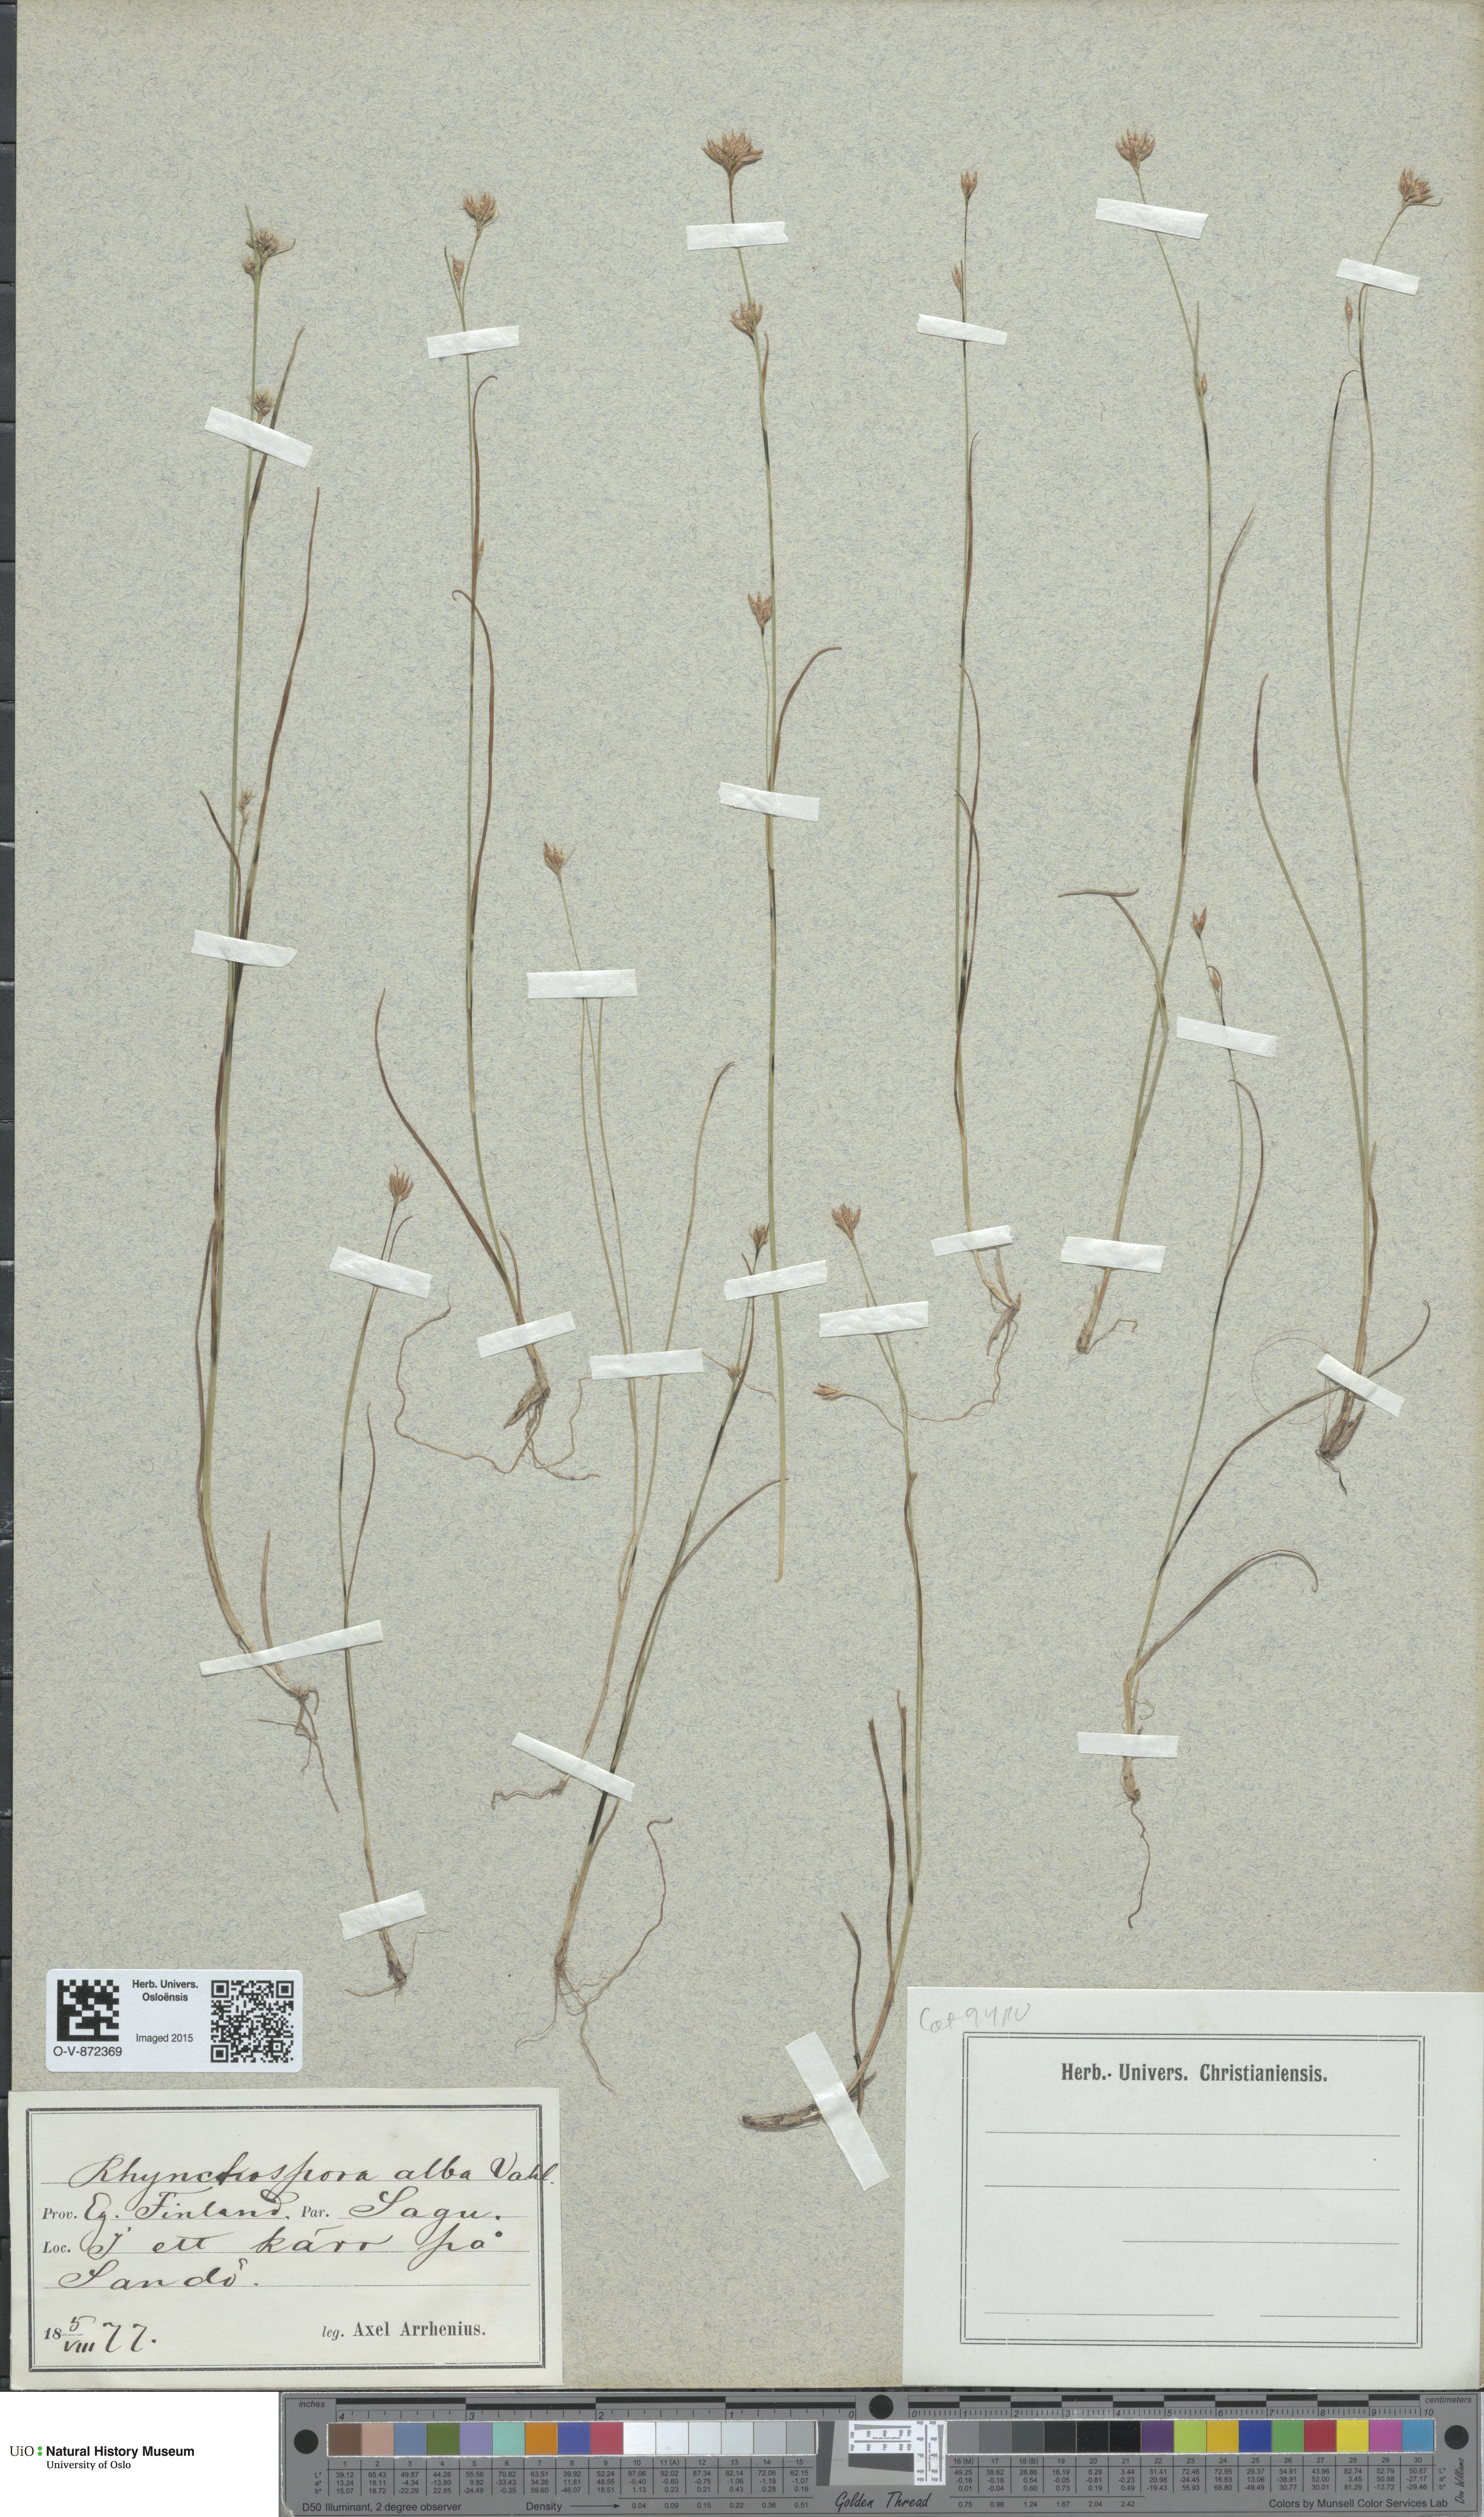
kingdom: Plantae
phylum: Tracheophyta
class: Liliopsida
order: Poales
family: Cyperaceae
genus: Rhynchospora
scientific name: Rhynchospora alba
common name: White beak-sedge
